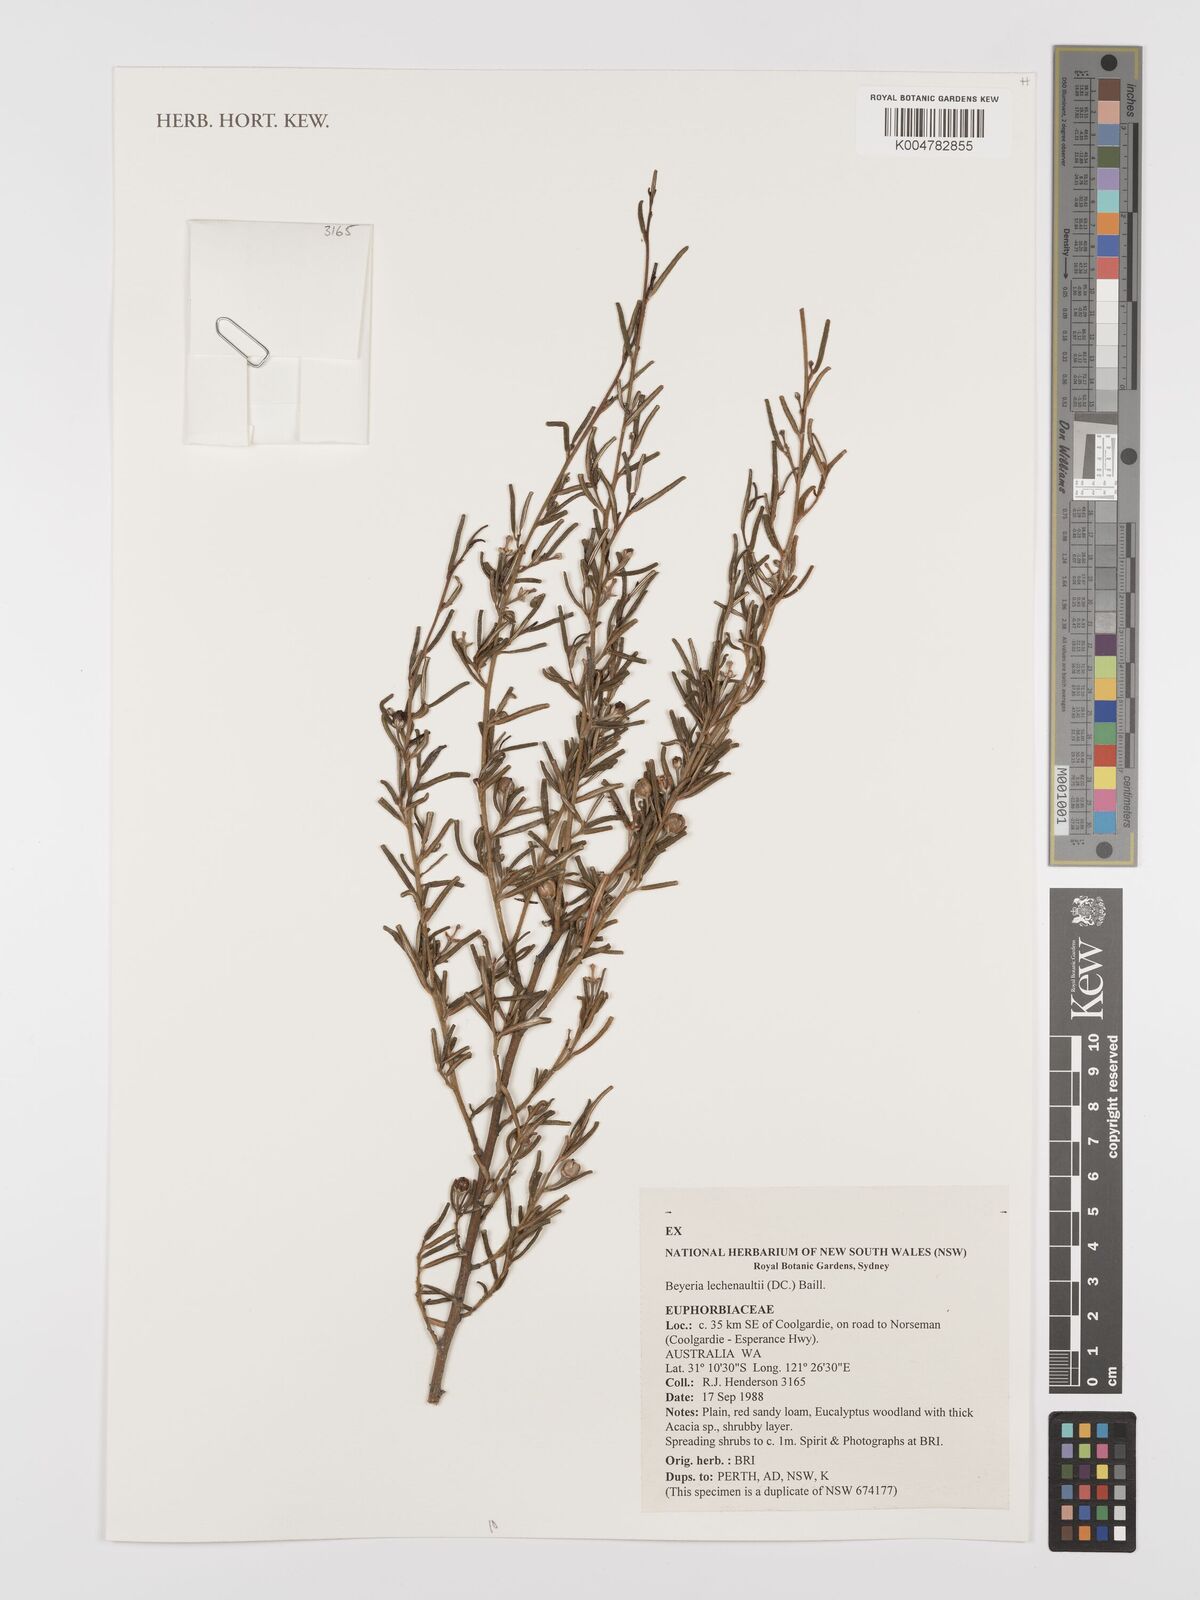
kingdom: Plantae
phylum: Tracheophyta
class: Magnoliopsida
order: Malpighiales
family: Euphorbiaceae
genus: Beyeria
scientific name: Beyeria lechenaultii
